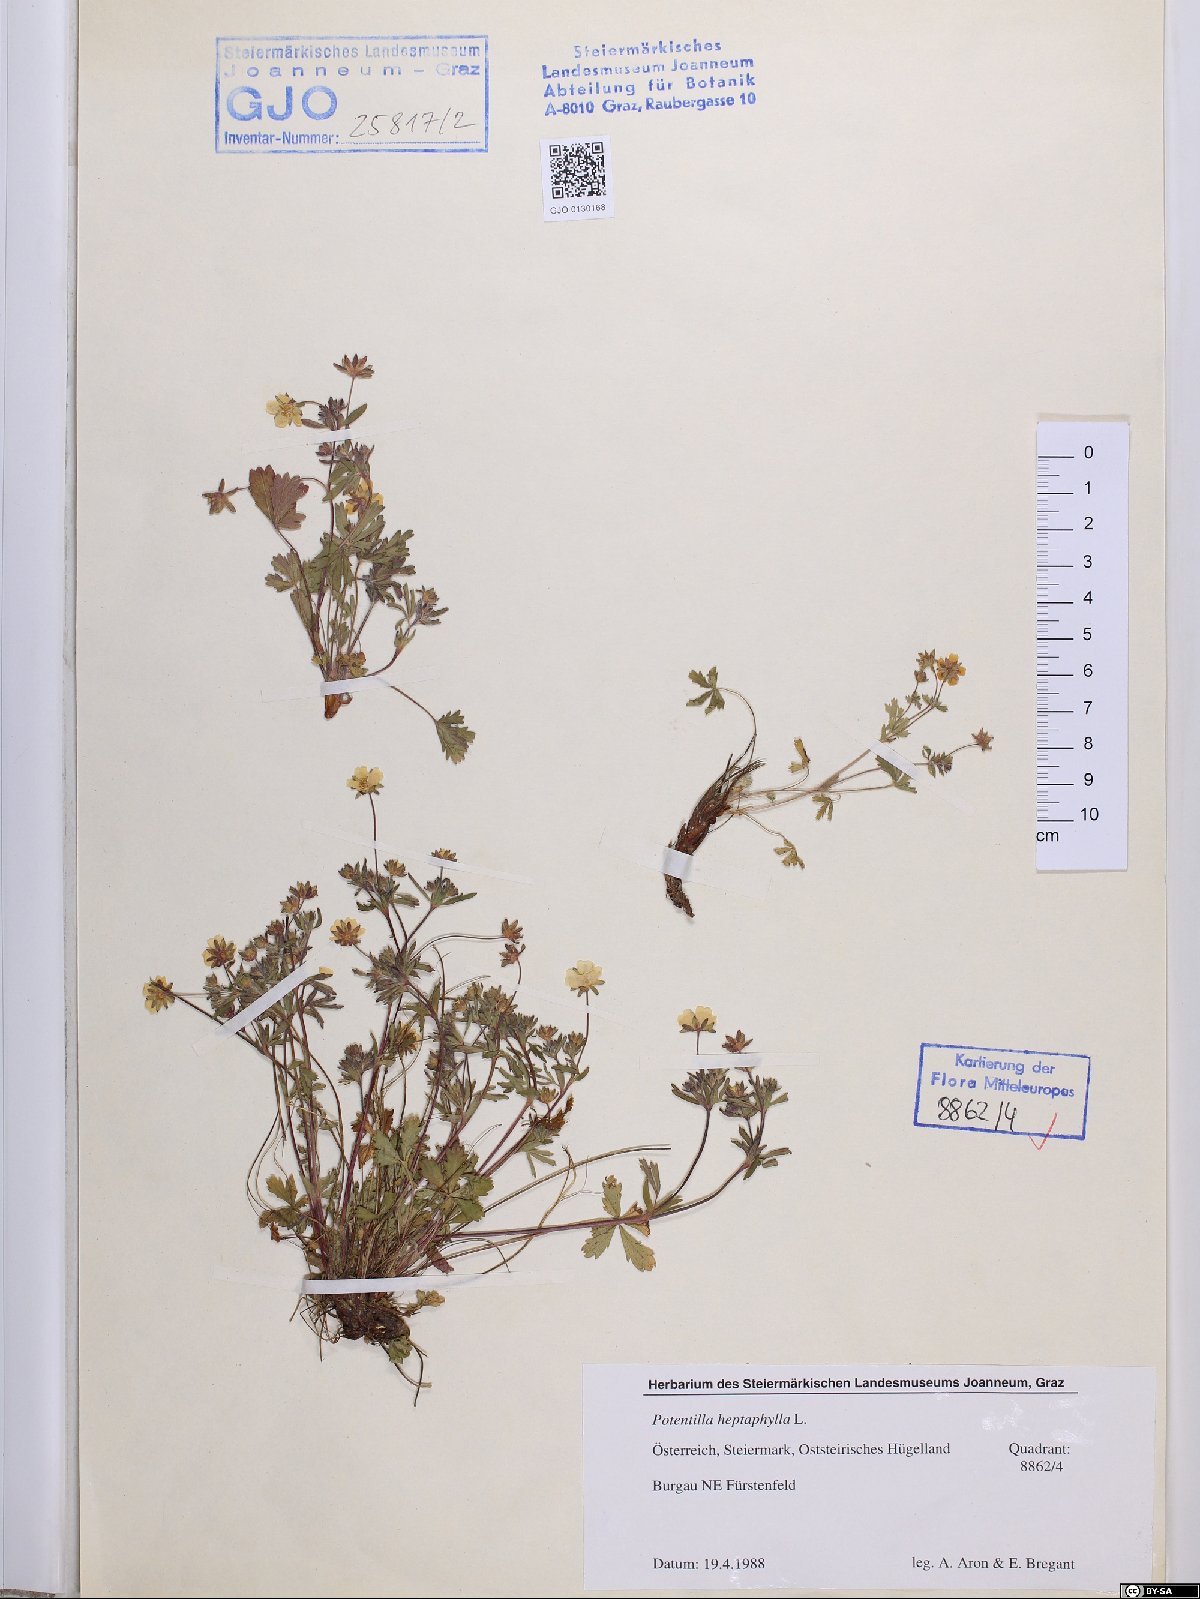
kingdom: Plantae
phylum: Tracheophyta
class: Magnoliopsida
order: Rosales
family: Rosaceae
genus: Potentilla
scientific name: Potentilla heptaphylla
